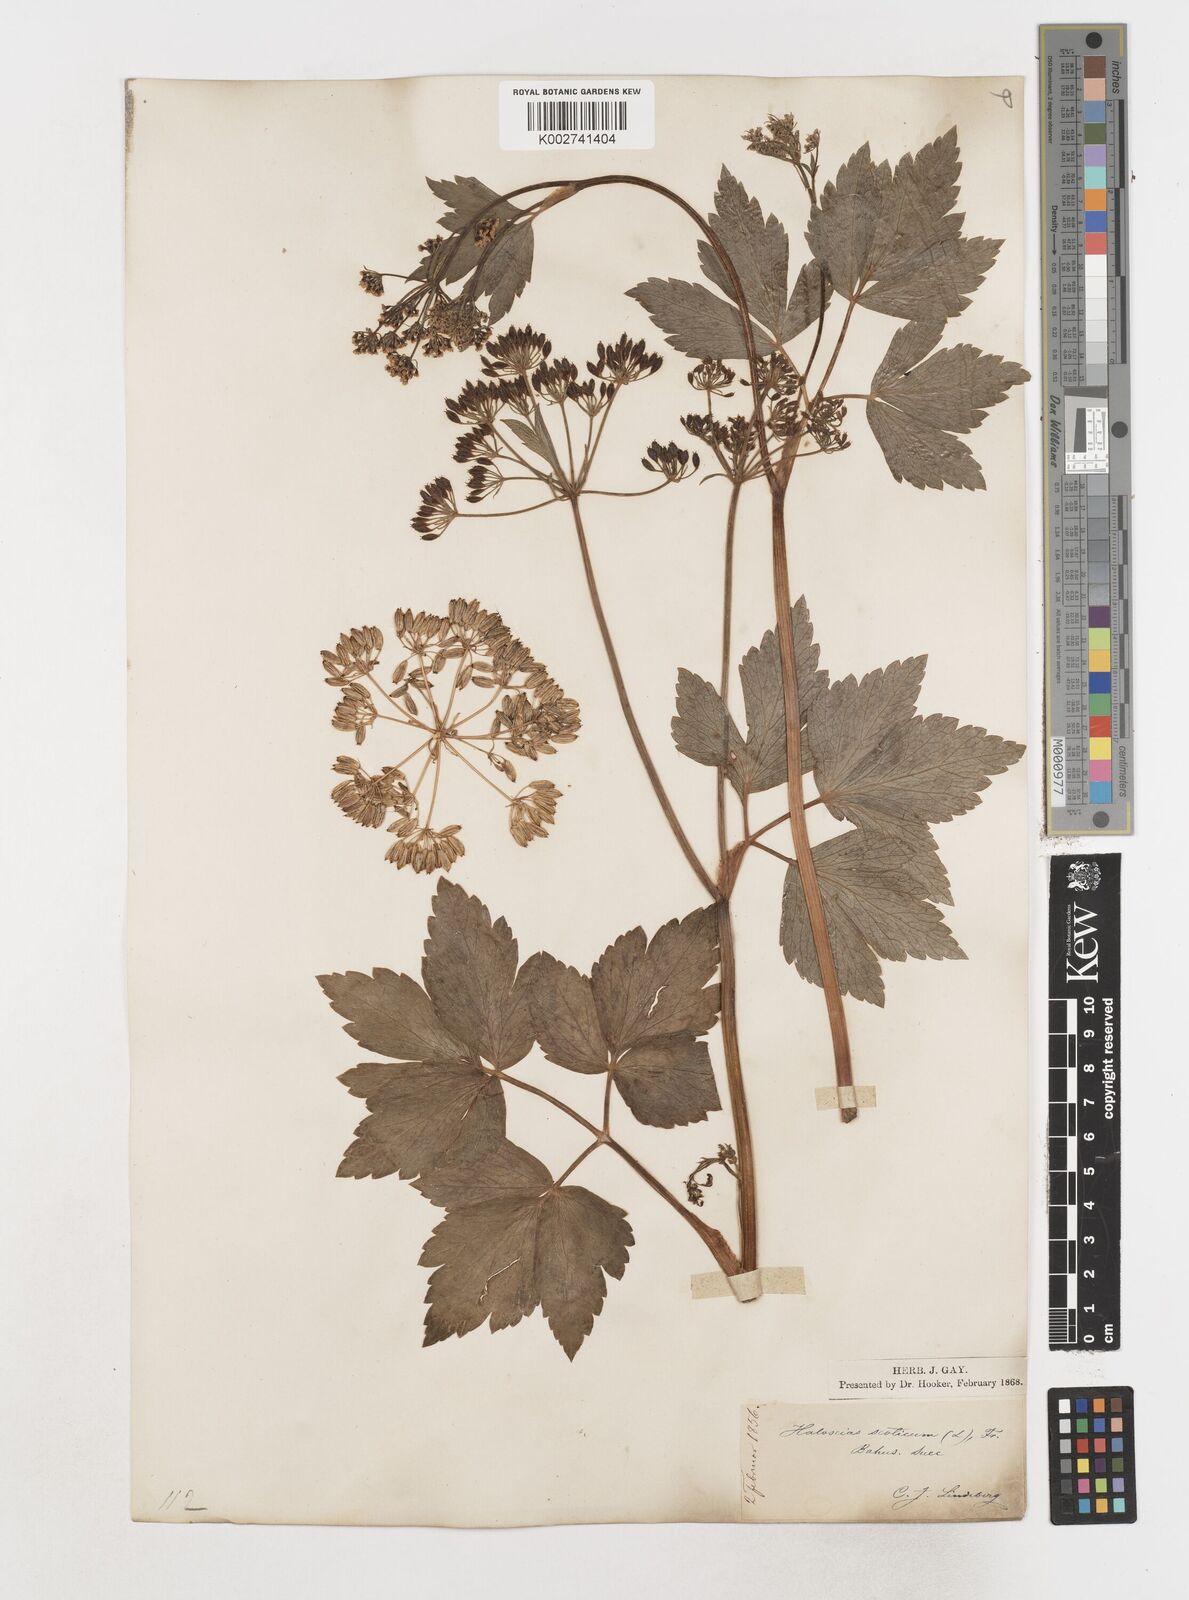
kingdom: Plantae
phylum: Tracheophyta
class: Magnoliopsida
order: Apiales
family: Apiaceae
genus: Ligusticum
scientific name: Ligusticum scothicum
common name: Beach lovage
